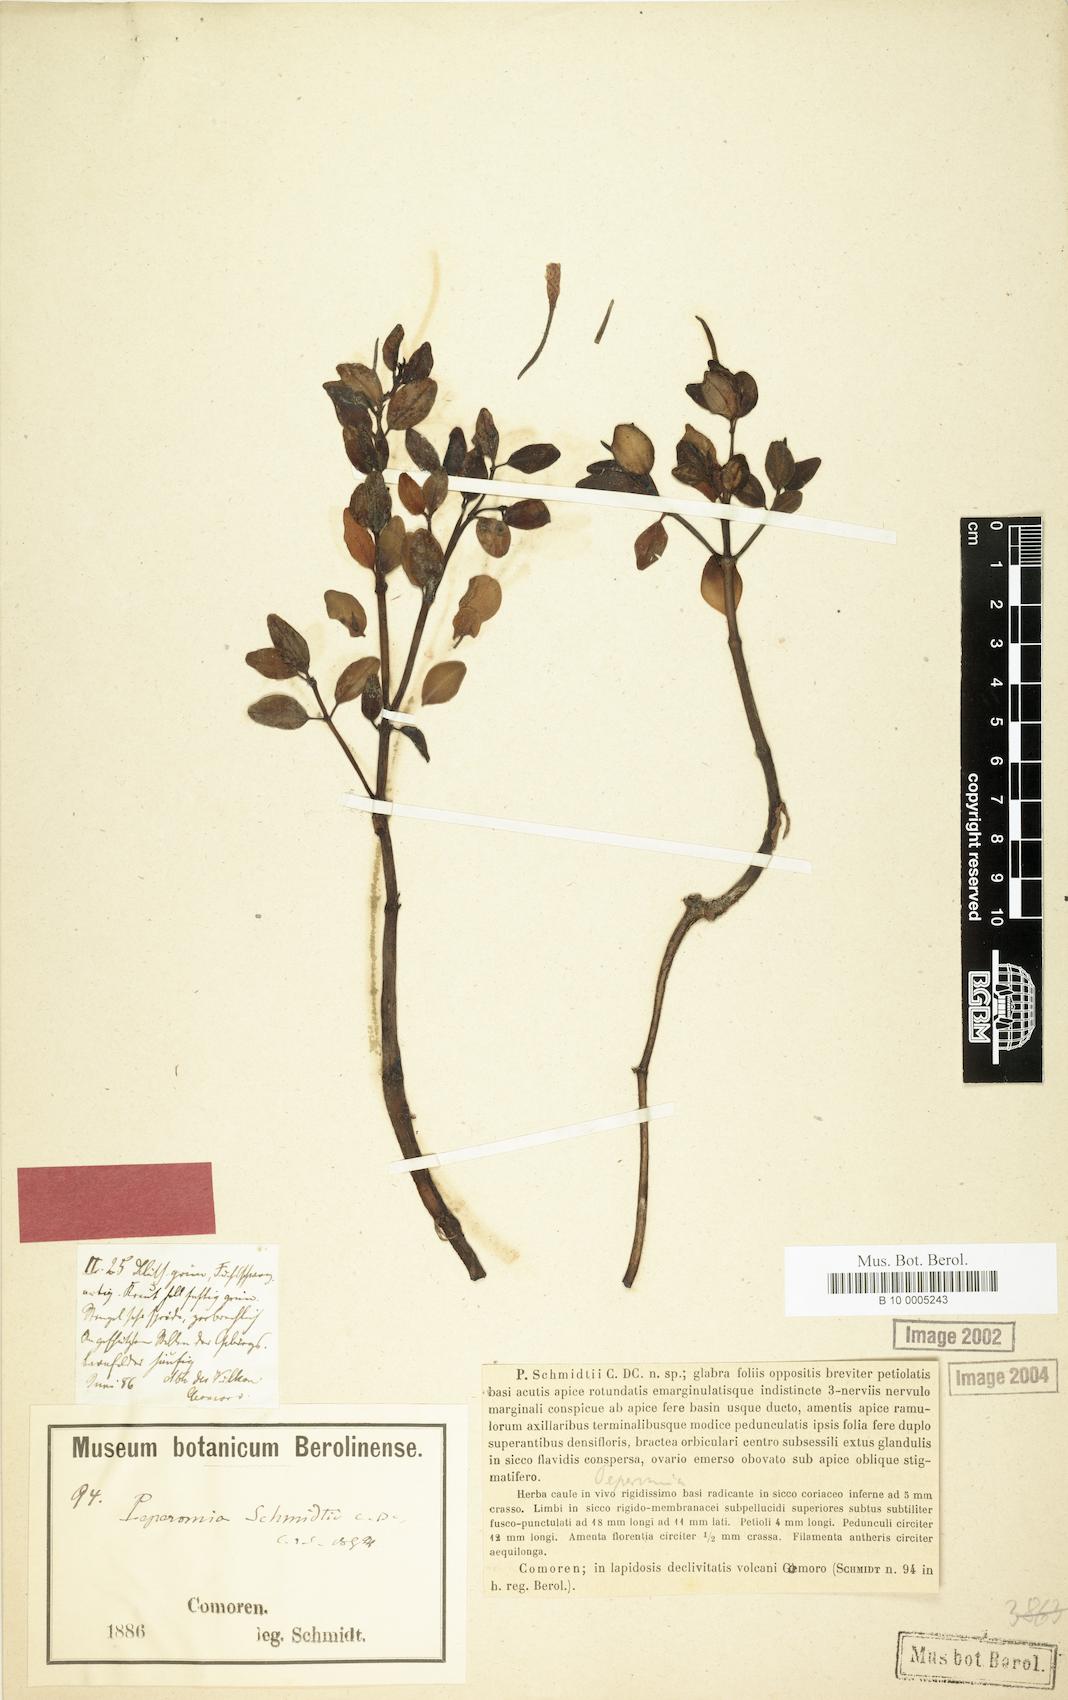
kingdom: Plantae
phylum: Tracheophyta
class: Magnoliopsida
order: Piperales
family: Piperaceae
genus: Peperomia
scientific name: Peperomia schmidtii
